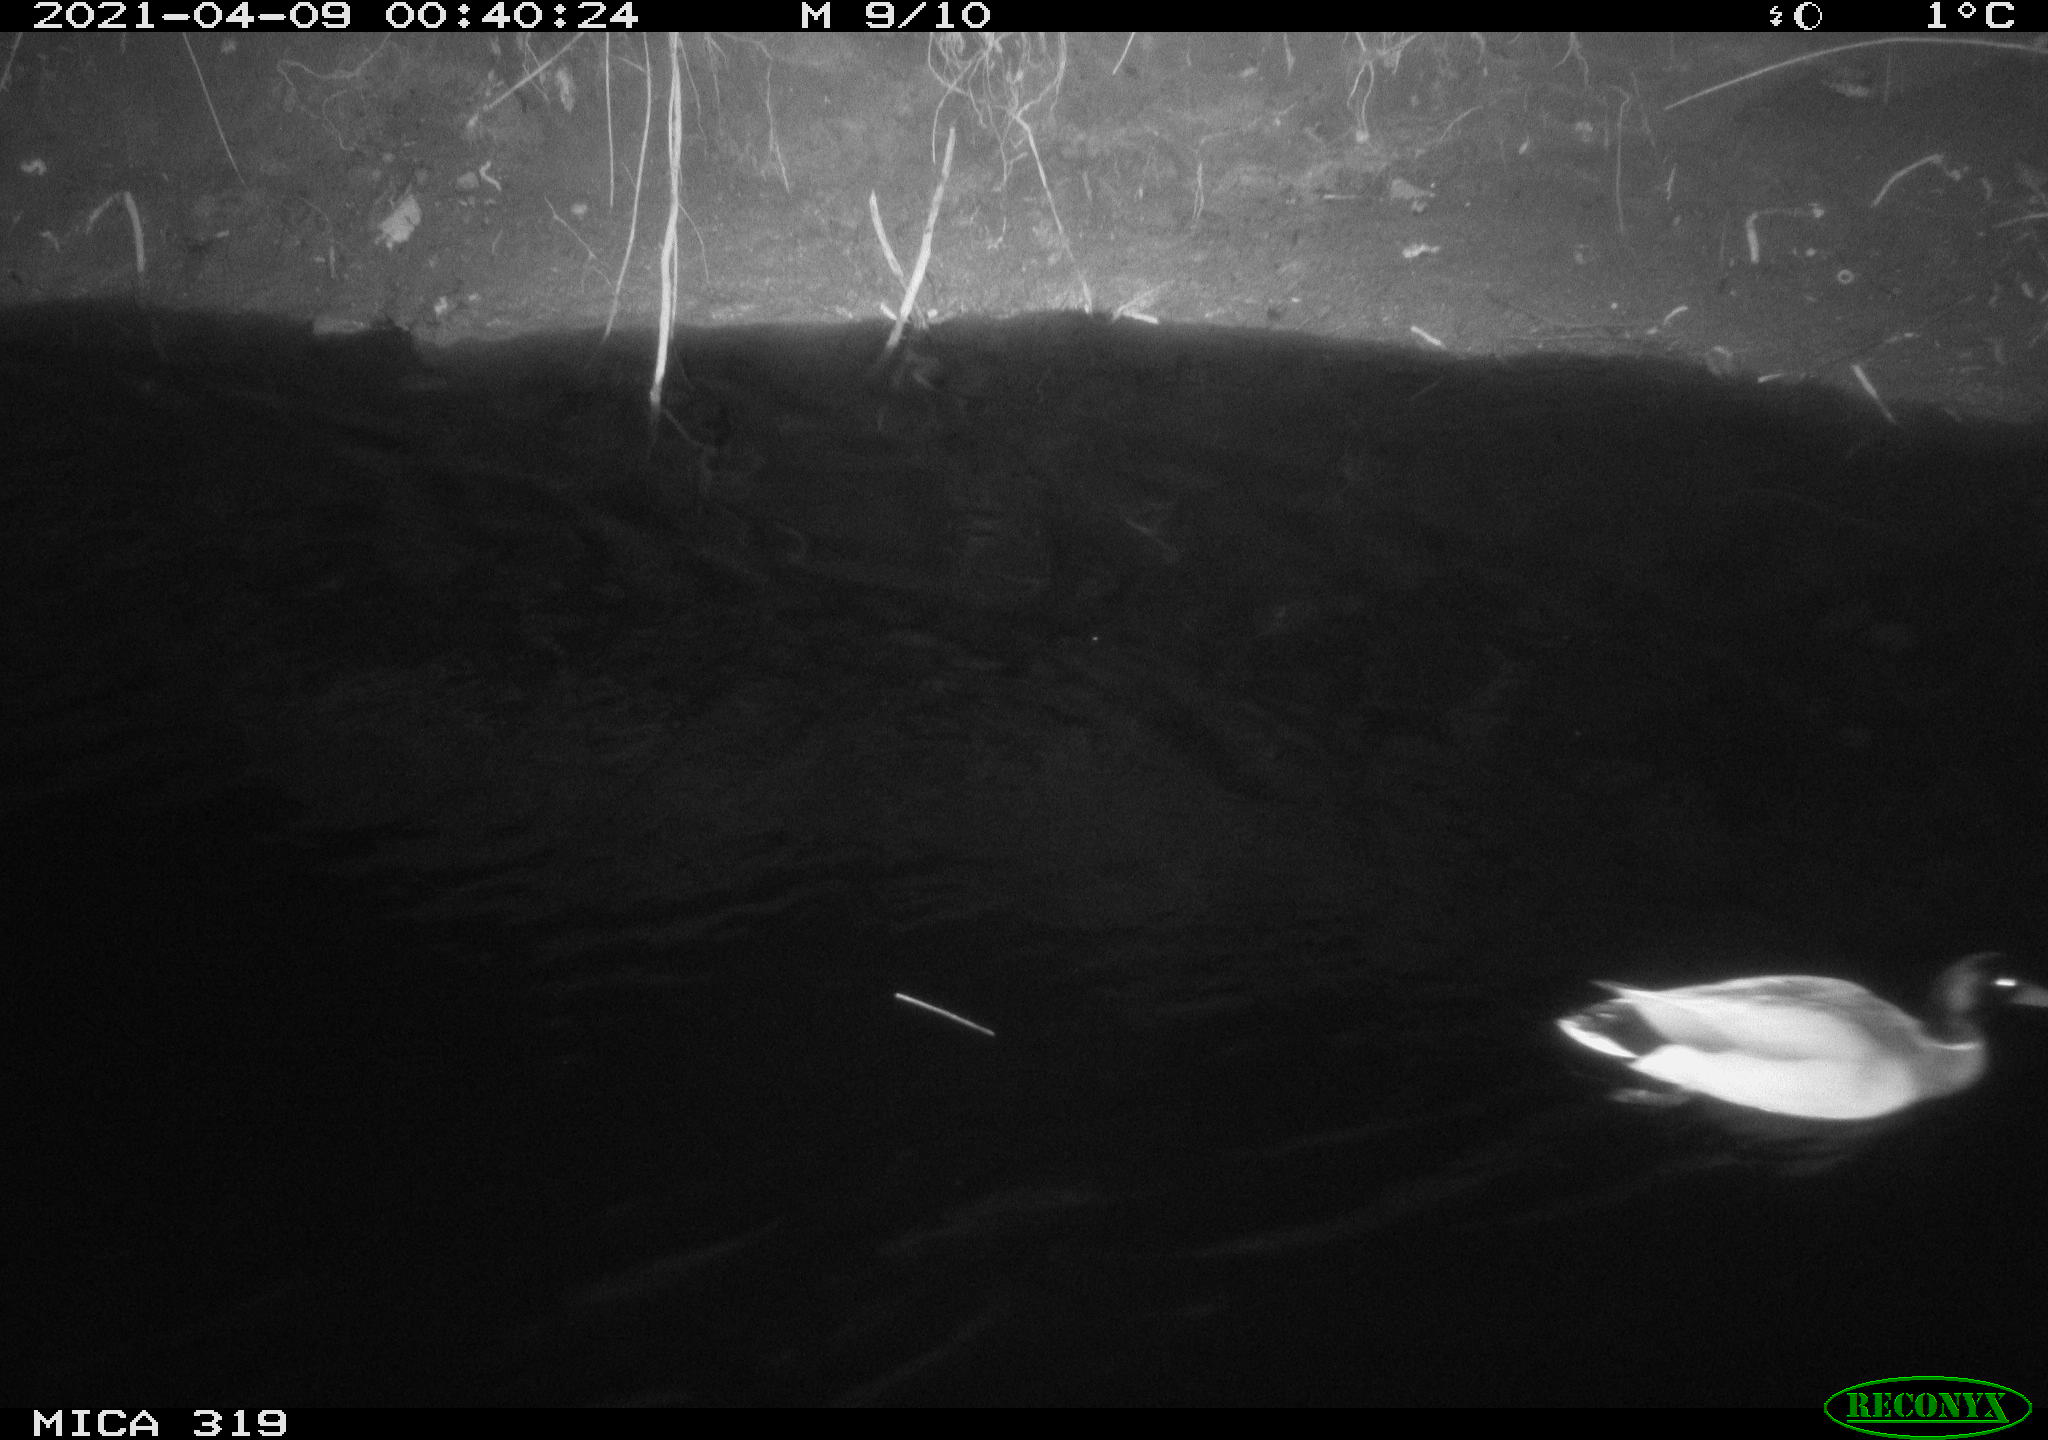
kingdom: Animalia
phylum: Chordata
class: Aves
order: Anseriformes
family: Anatidae
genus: Anas
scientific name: Anas platyrhynchos
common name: Mallard
